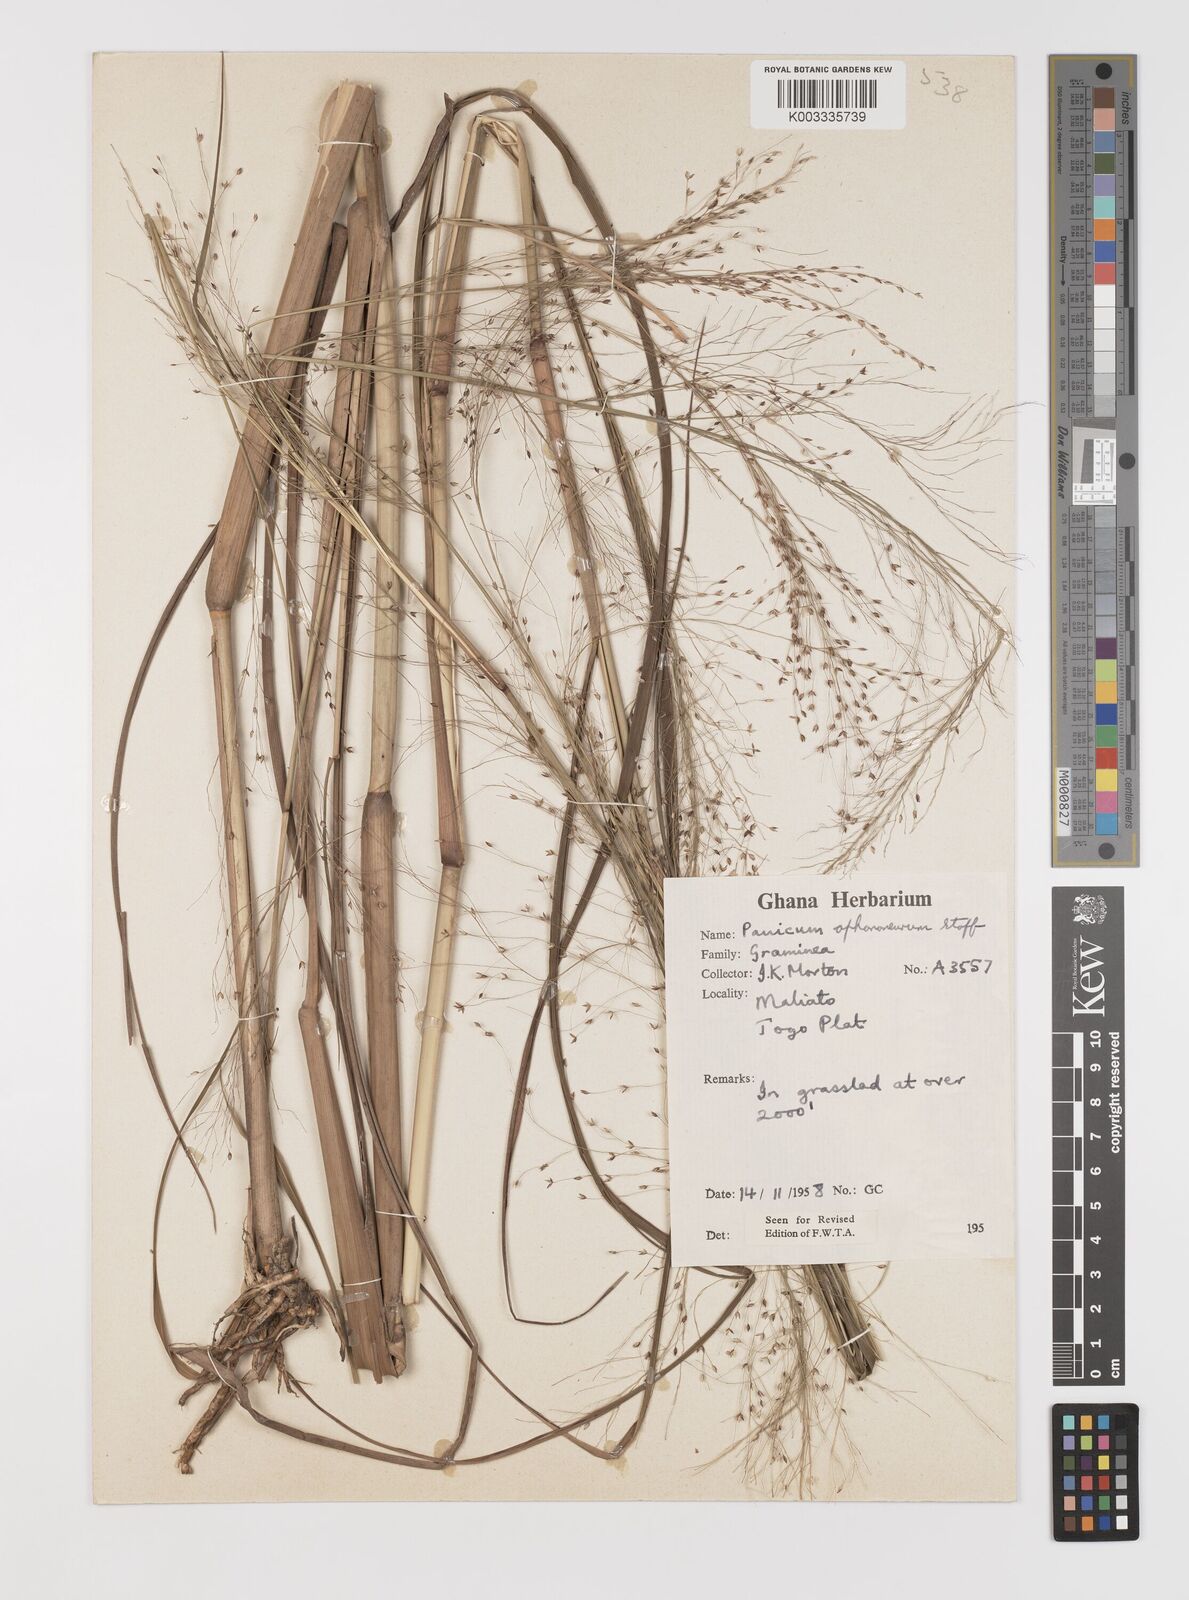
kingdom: Plantae
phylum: Tracheophyta
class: Liliopsida
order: Poales
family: Poaceae
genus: Panicum
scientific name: Panicum fluviicola
